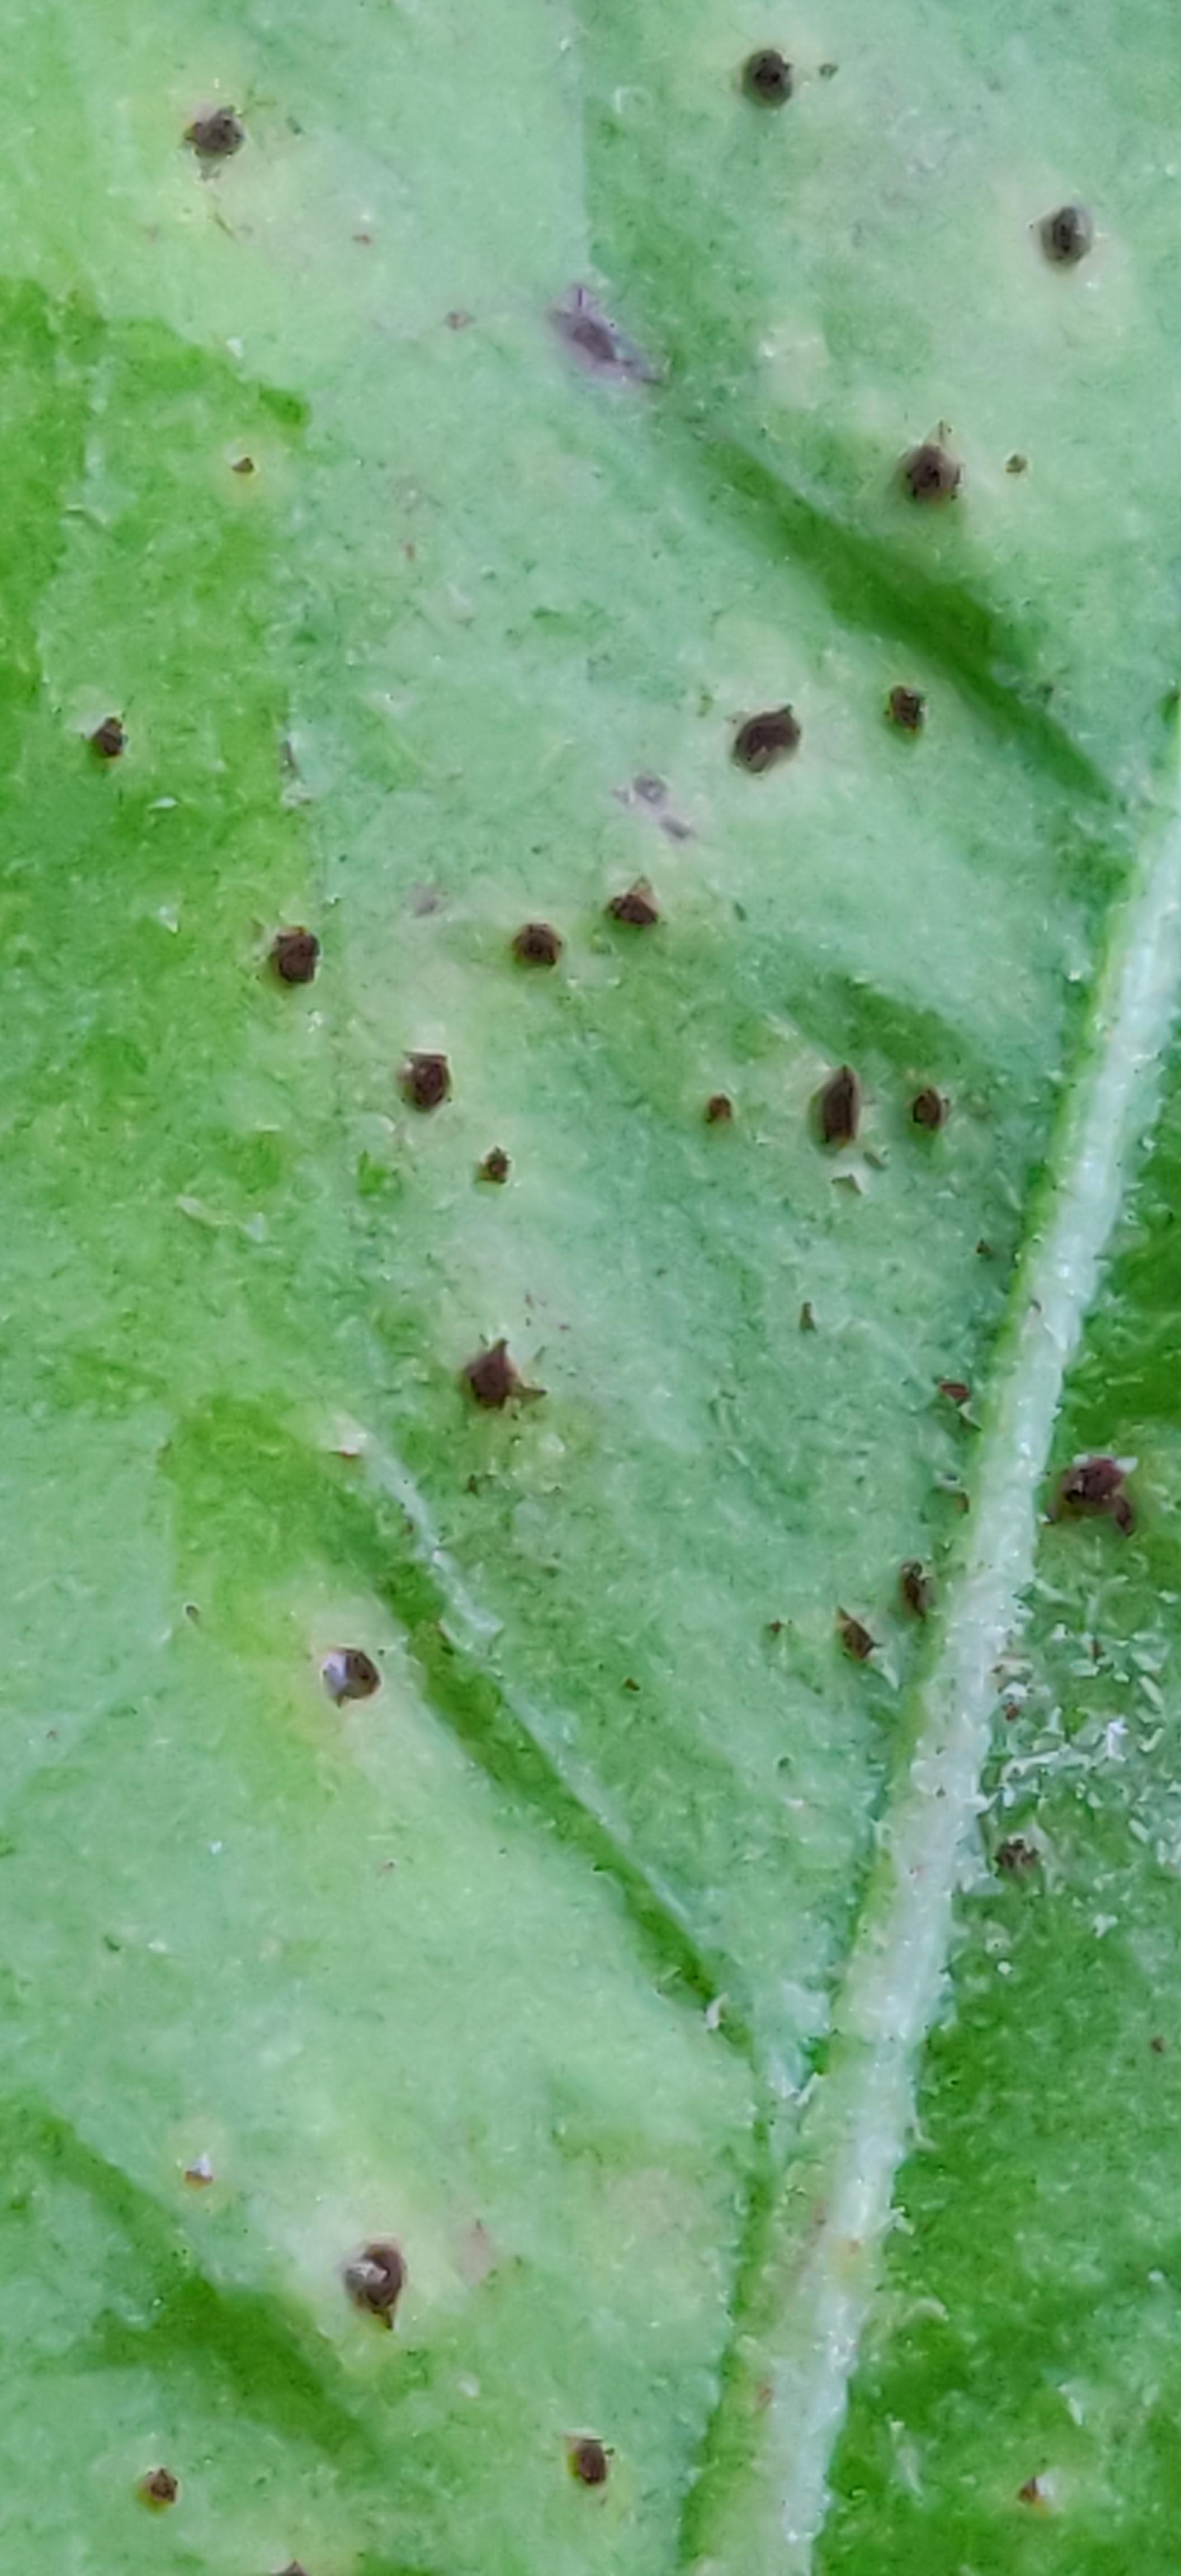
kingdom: Fungi
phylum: Basidiomycota
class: Pucciniomycetes
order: Pucciniales
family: Pucciniaceae
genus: Puccinia
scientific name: Puccinia hieracii
